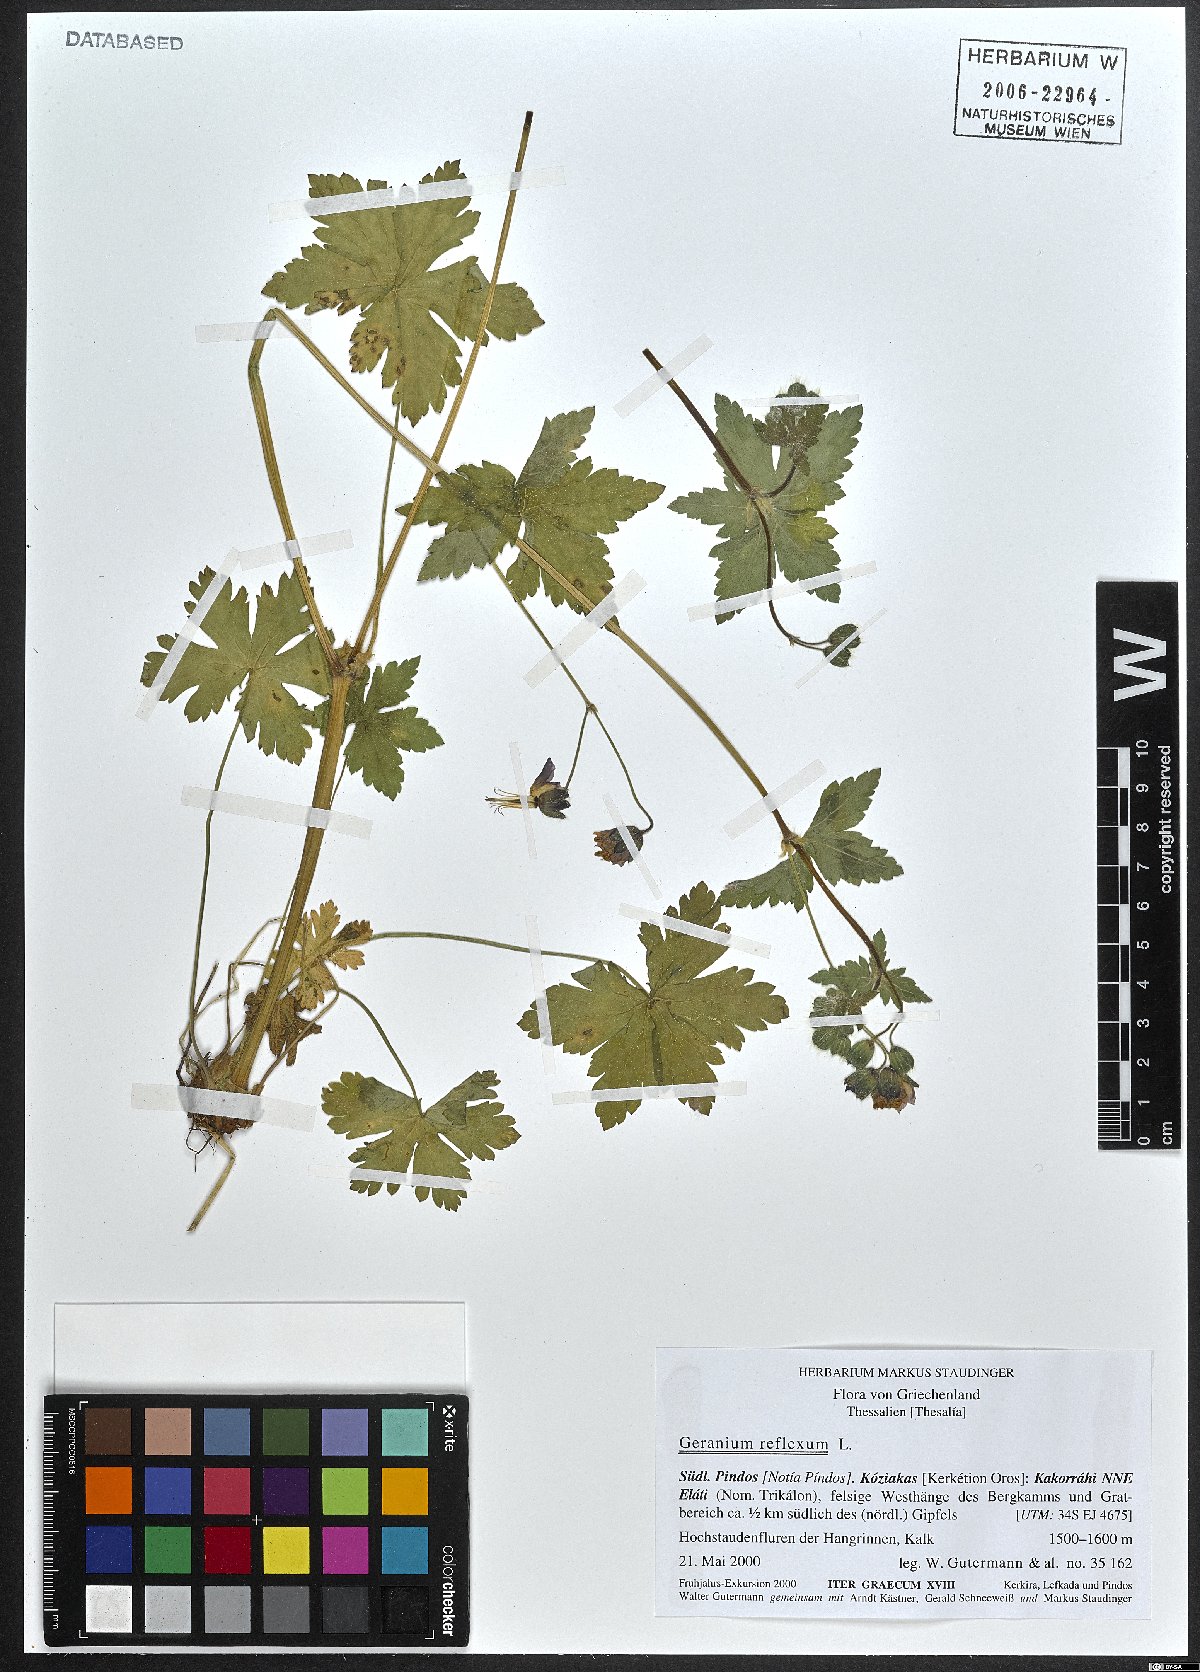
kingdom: Plantae
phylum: Tracheophyta
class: Magnoliopsida
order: Geraniales
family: Geraniaceae
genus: Geranium
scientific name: Geranium reflexum
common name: Reflexed crane's-bill
